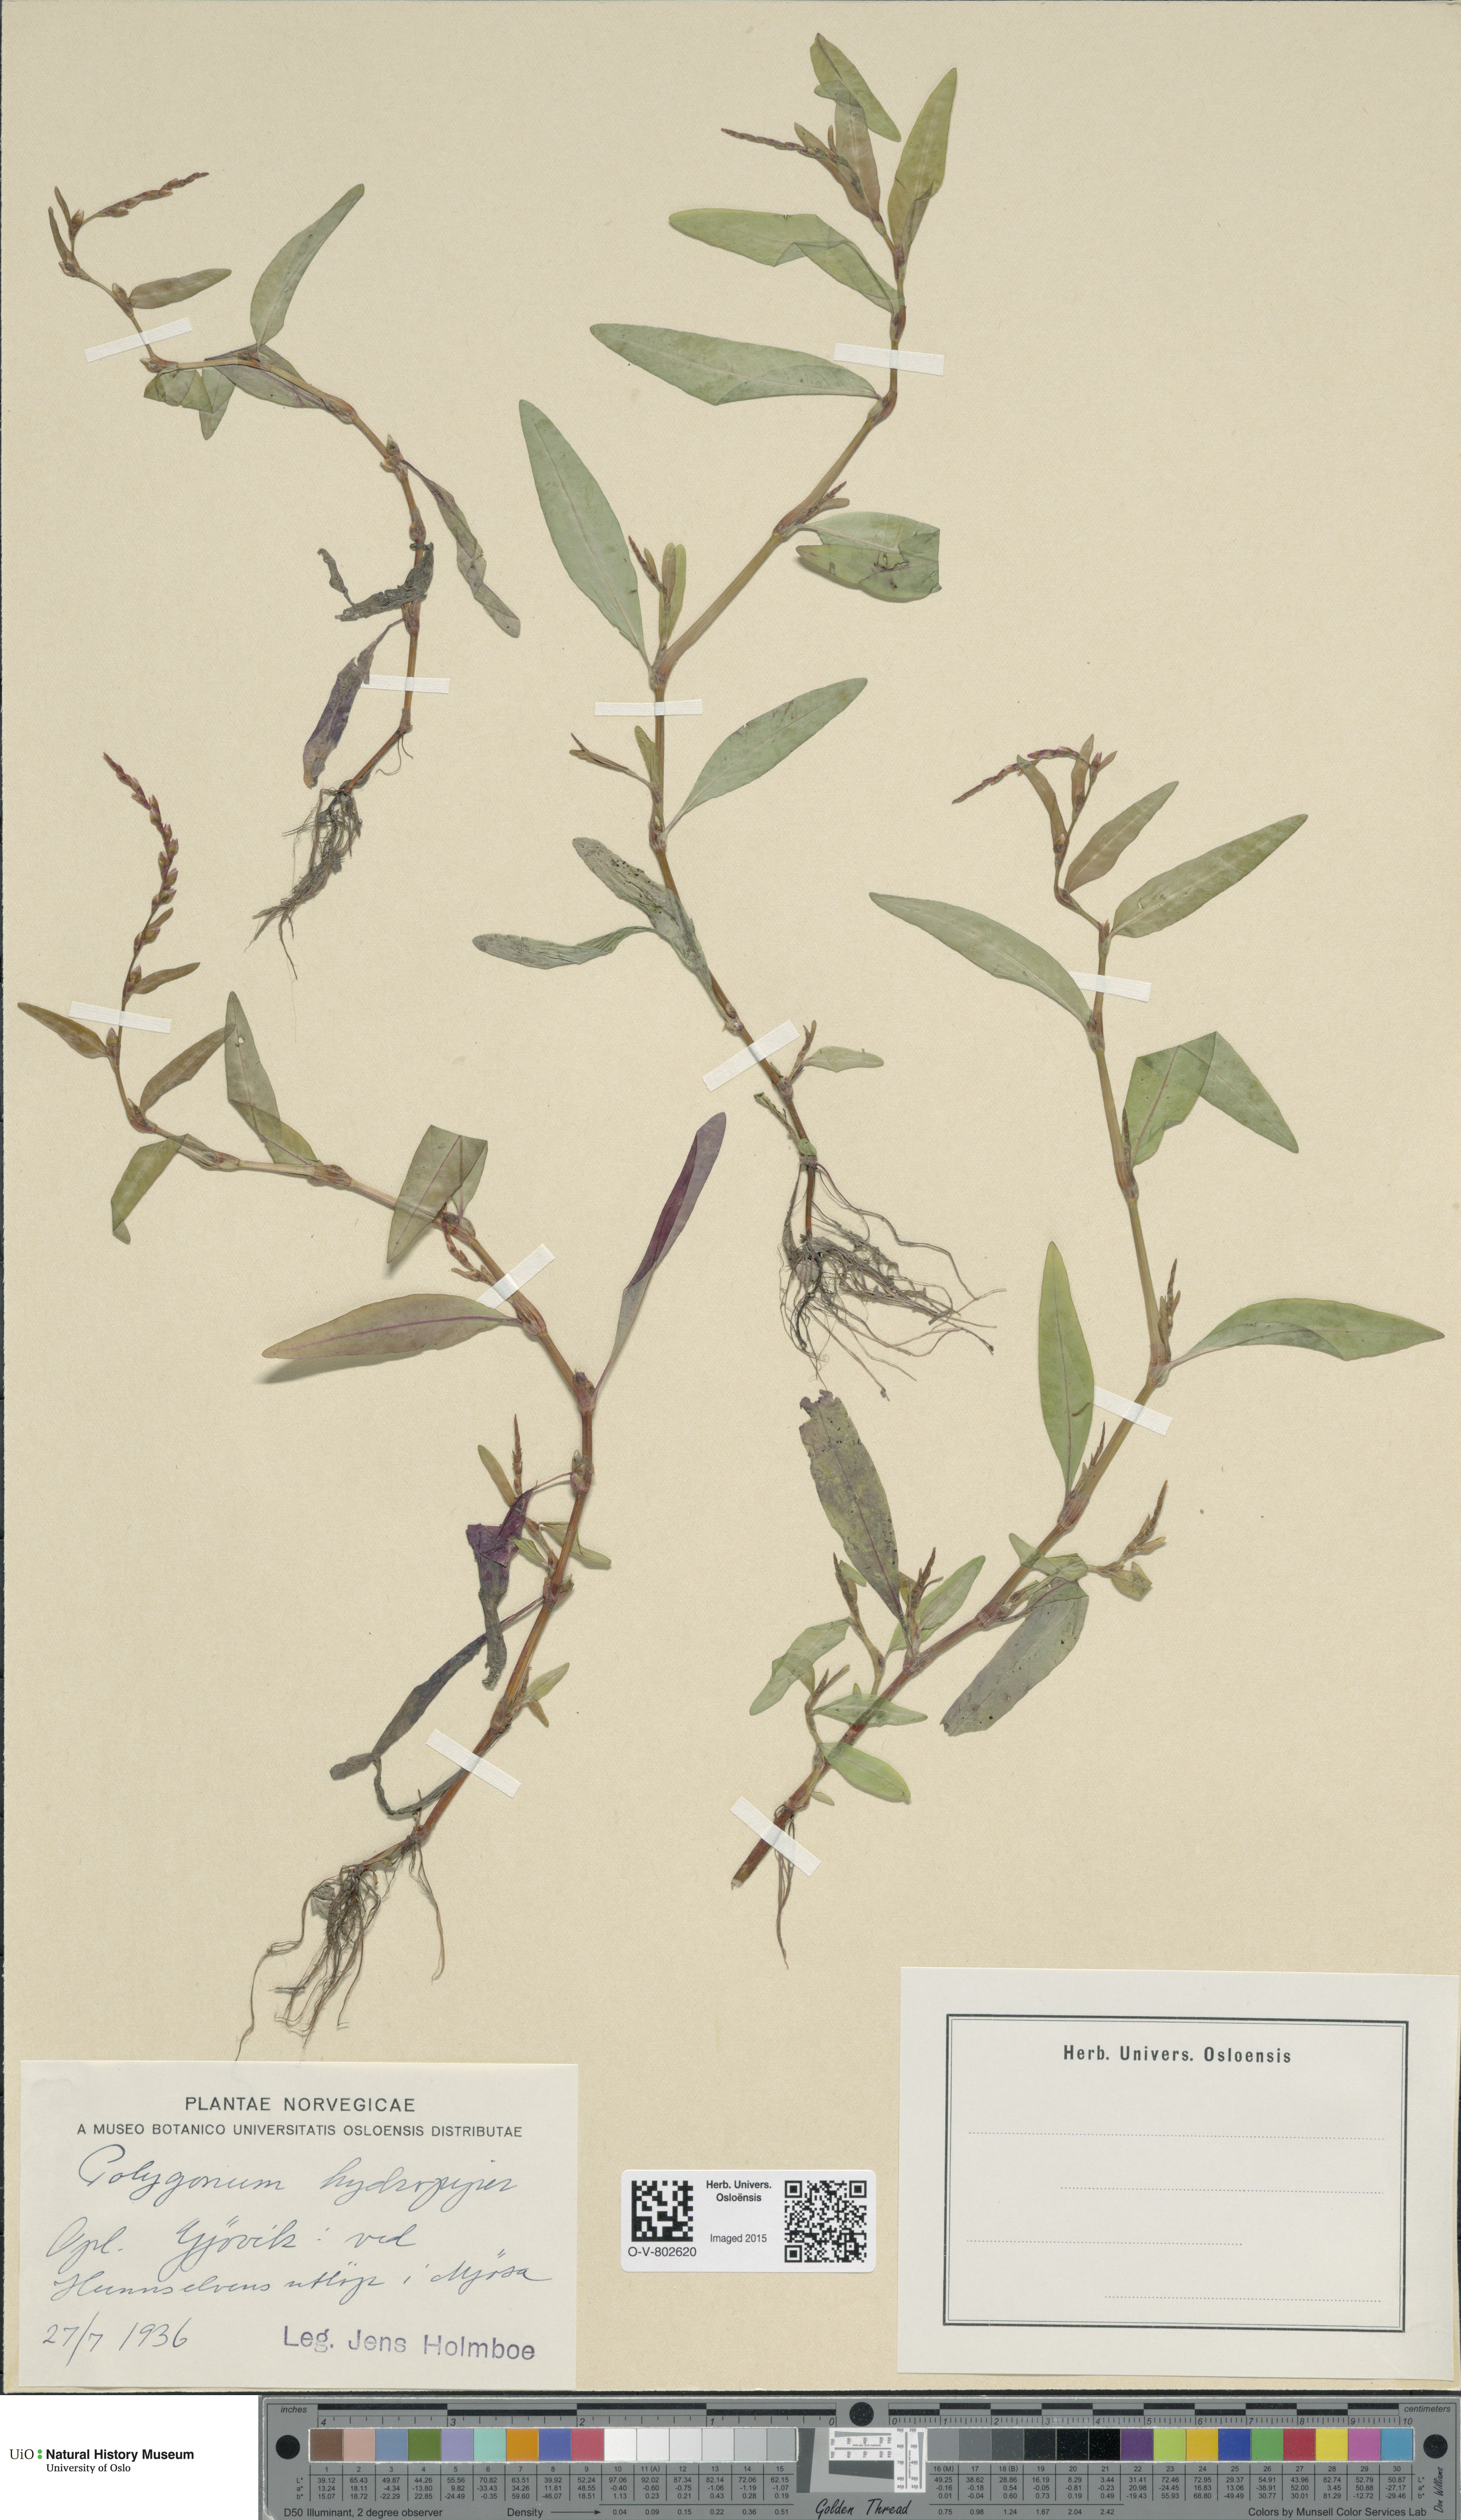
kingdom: Plantae
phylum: Tracheophyta
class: Magnoliopsida
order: Caryophyllales
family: Polygonaceae
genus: Persicaria
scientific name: Persicaria hydropiper
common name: Water-pepper
